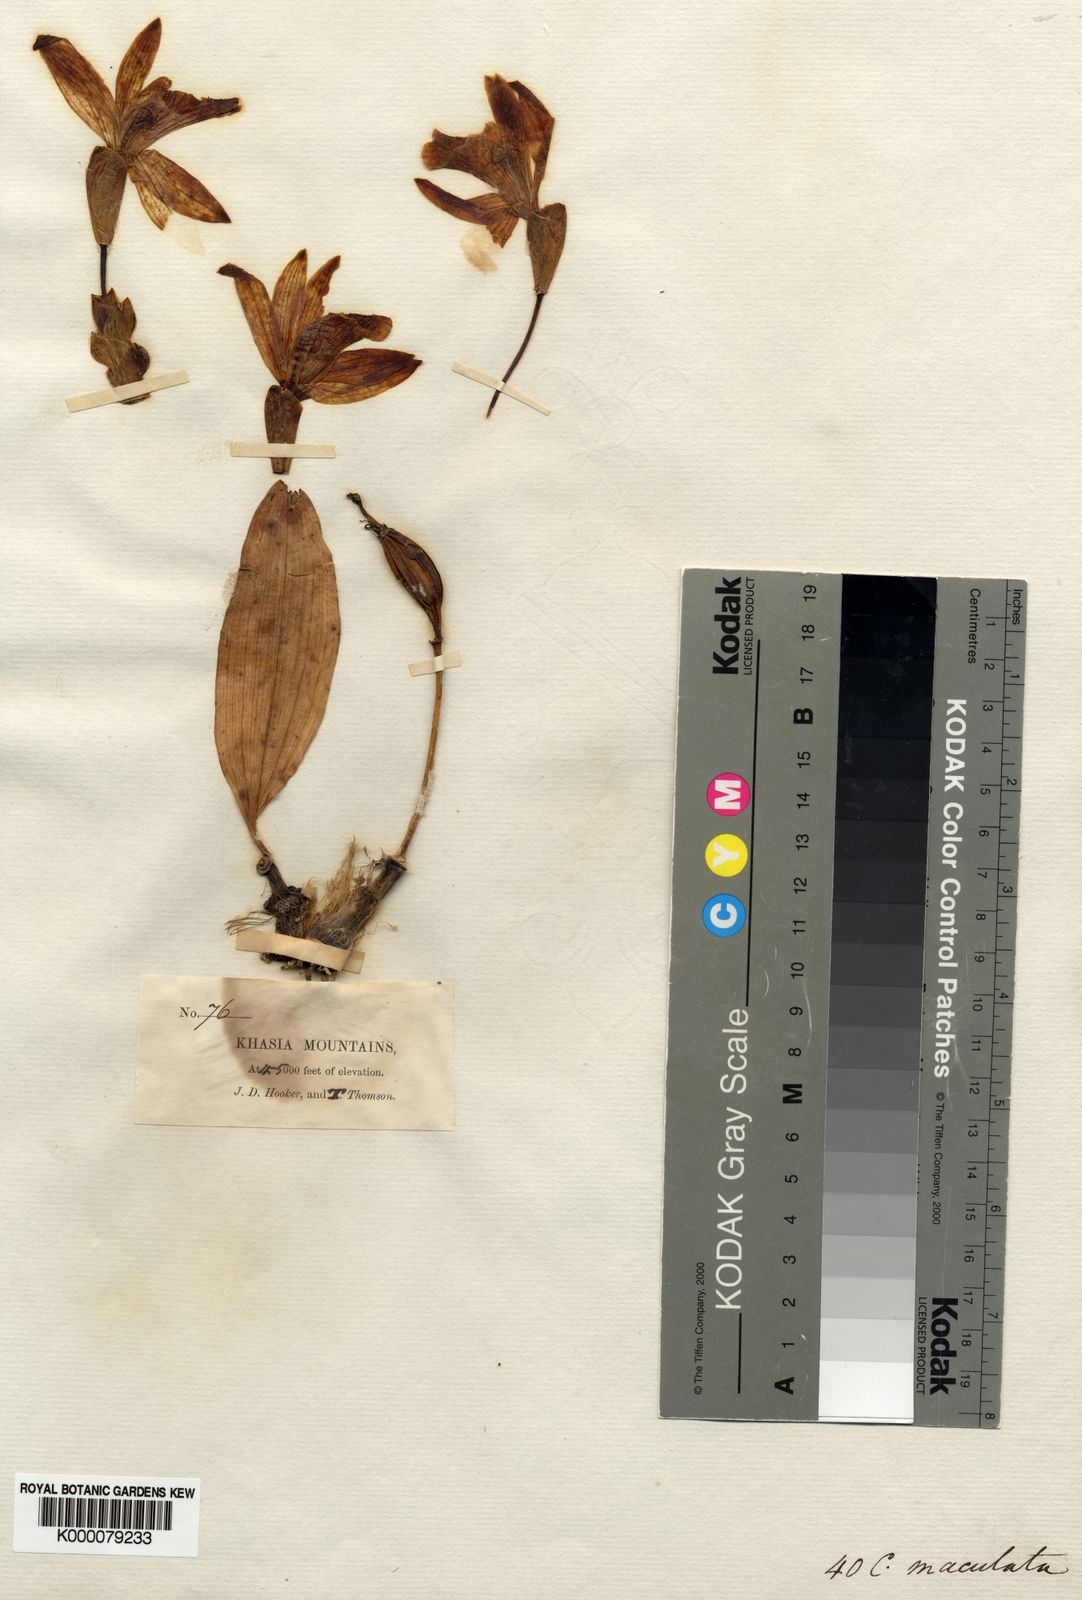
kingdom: Plantae
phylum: Tracheophyta
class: Liliopsida
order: Asparagales
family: Orchidaceae
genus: Pleione
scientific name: Pleione maculata
